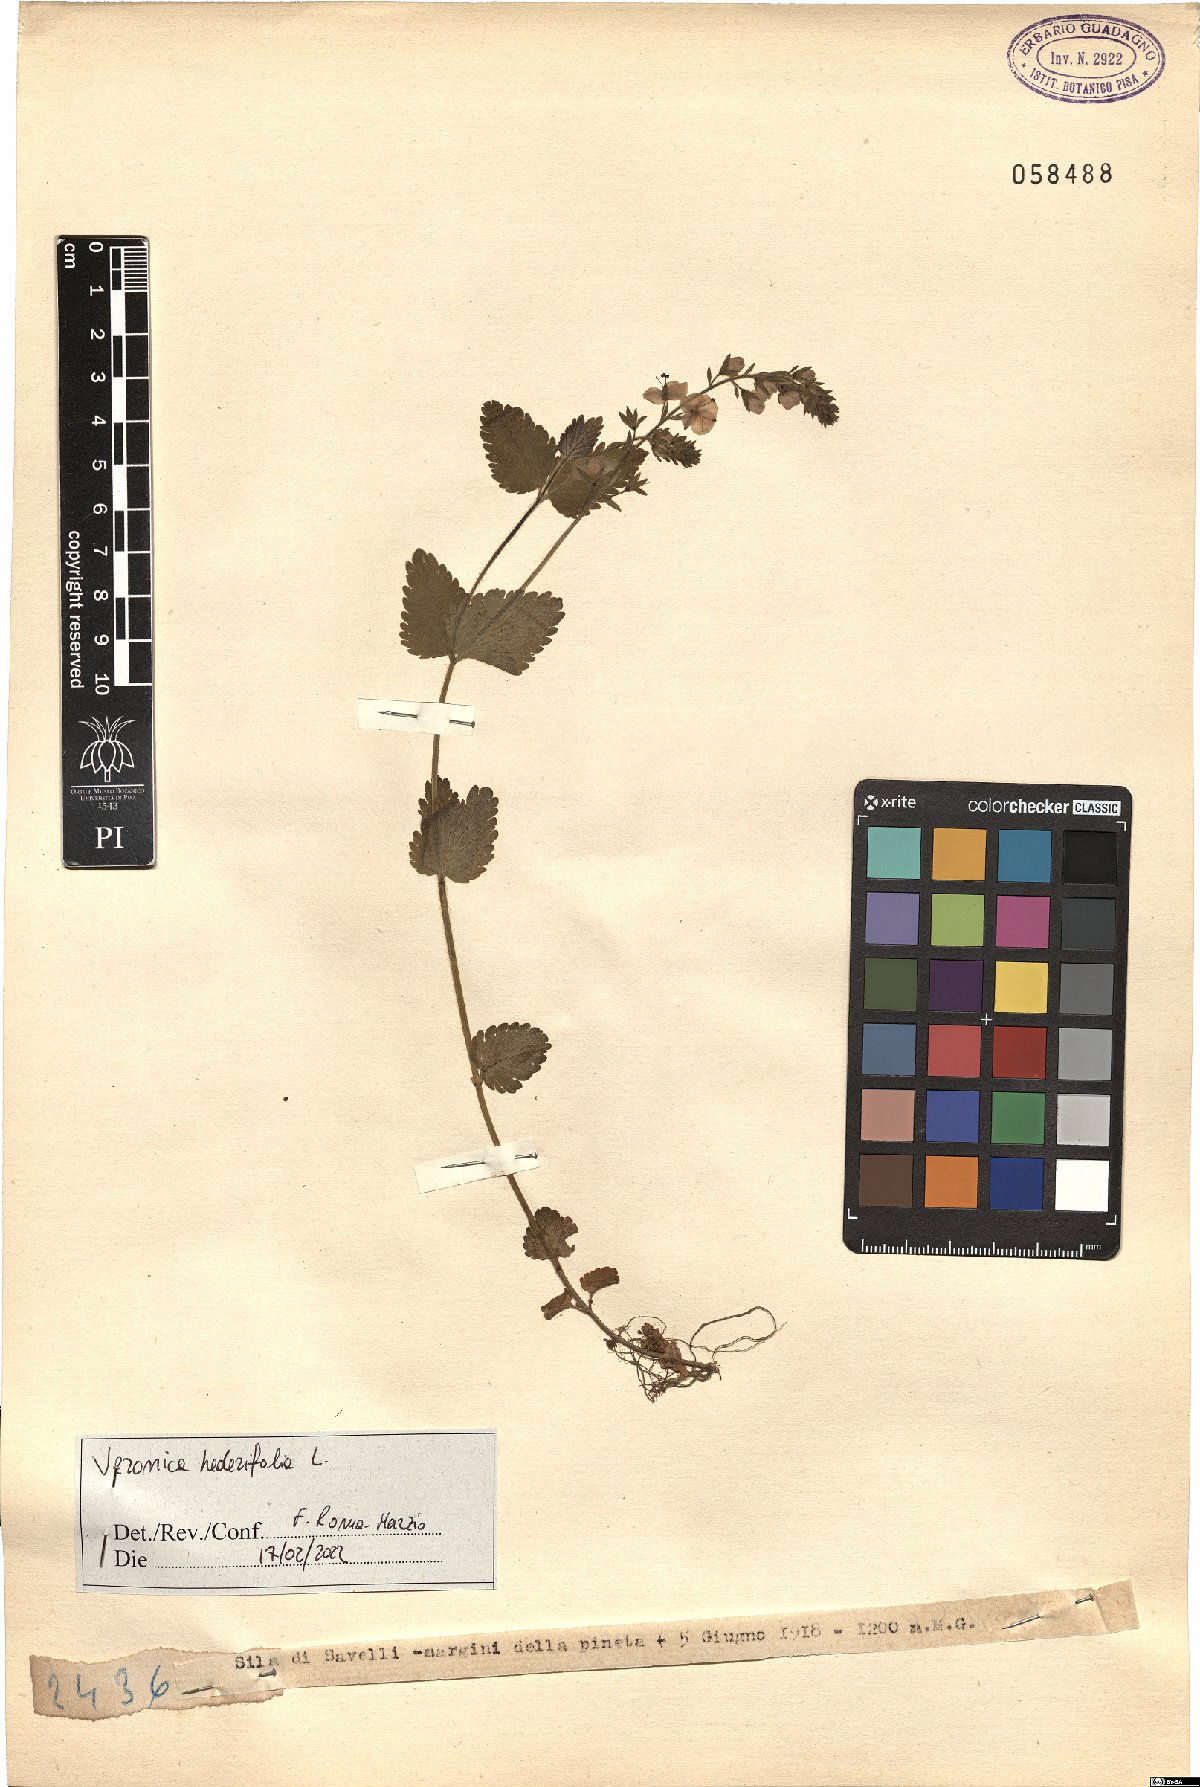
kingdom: Plantae
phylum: Tracheophyta
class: Magnoliopsida
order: Lamiales
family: Plantaginaceae
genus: Veronica
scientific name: Veronica hederifolia
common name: Ivy-leaved speedwell
